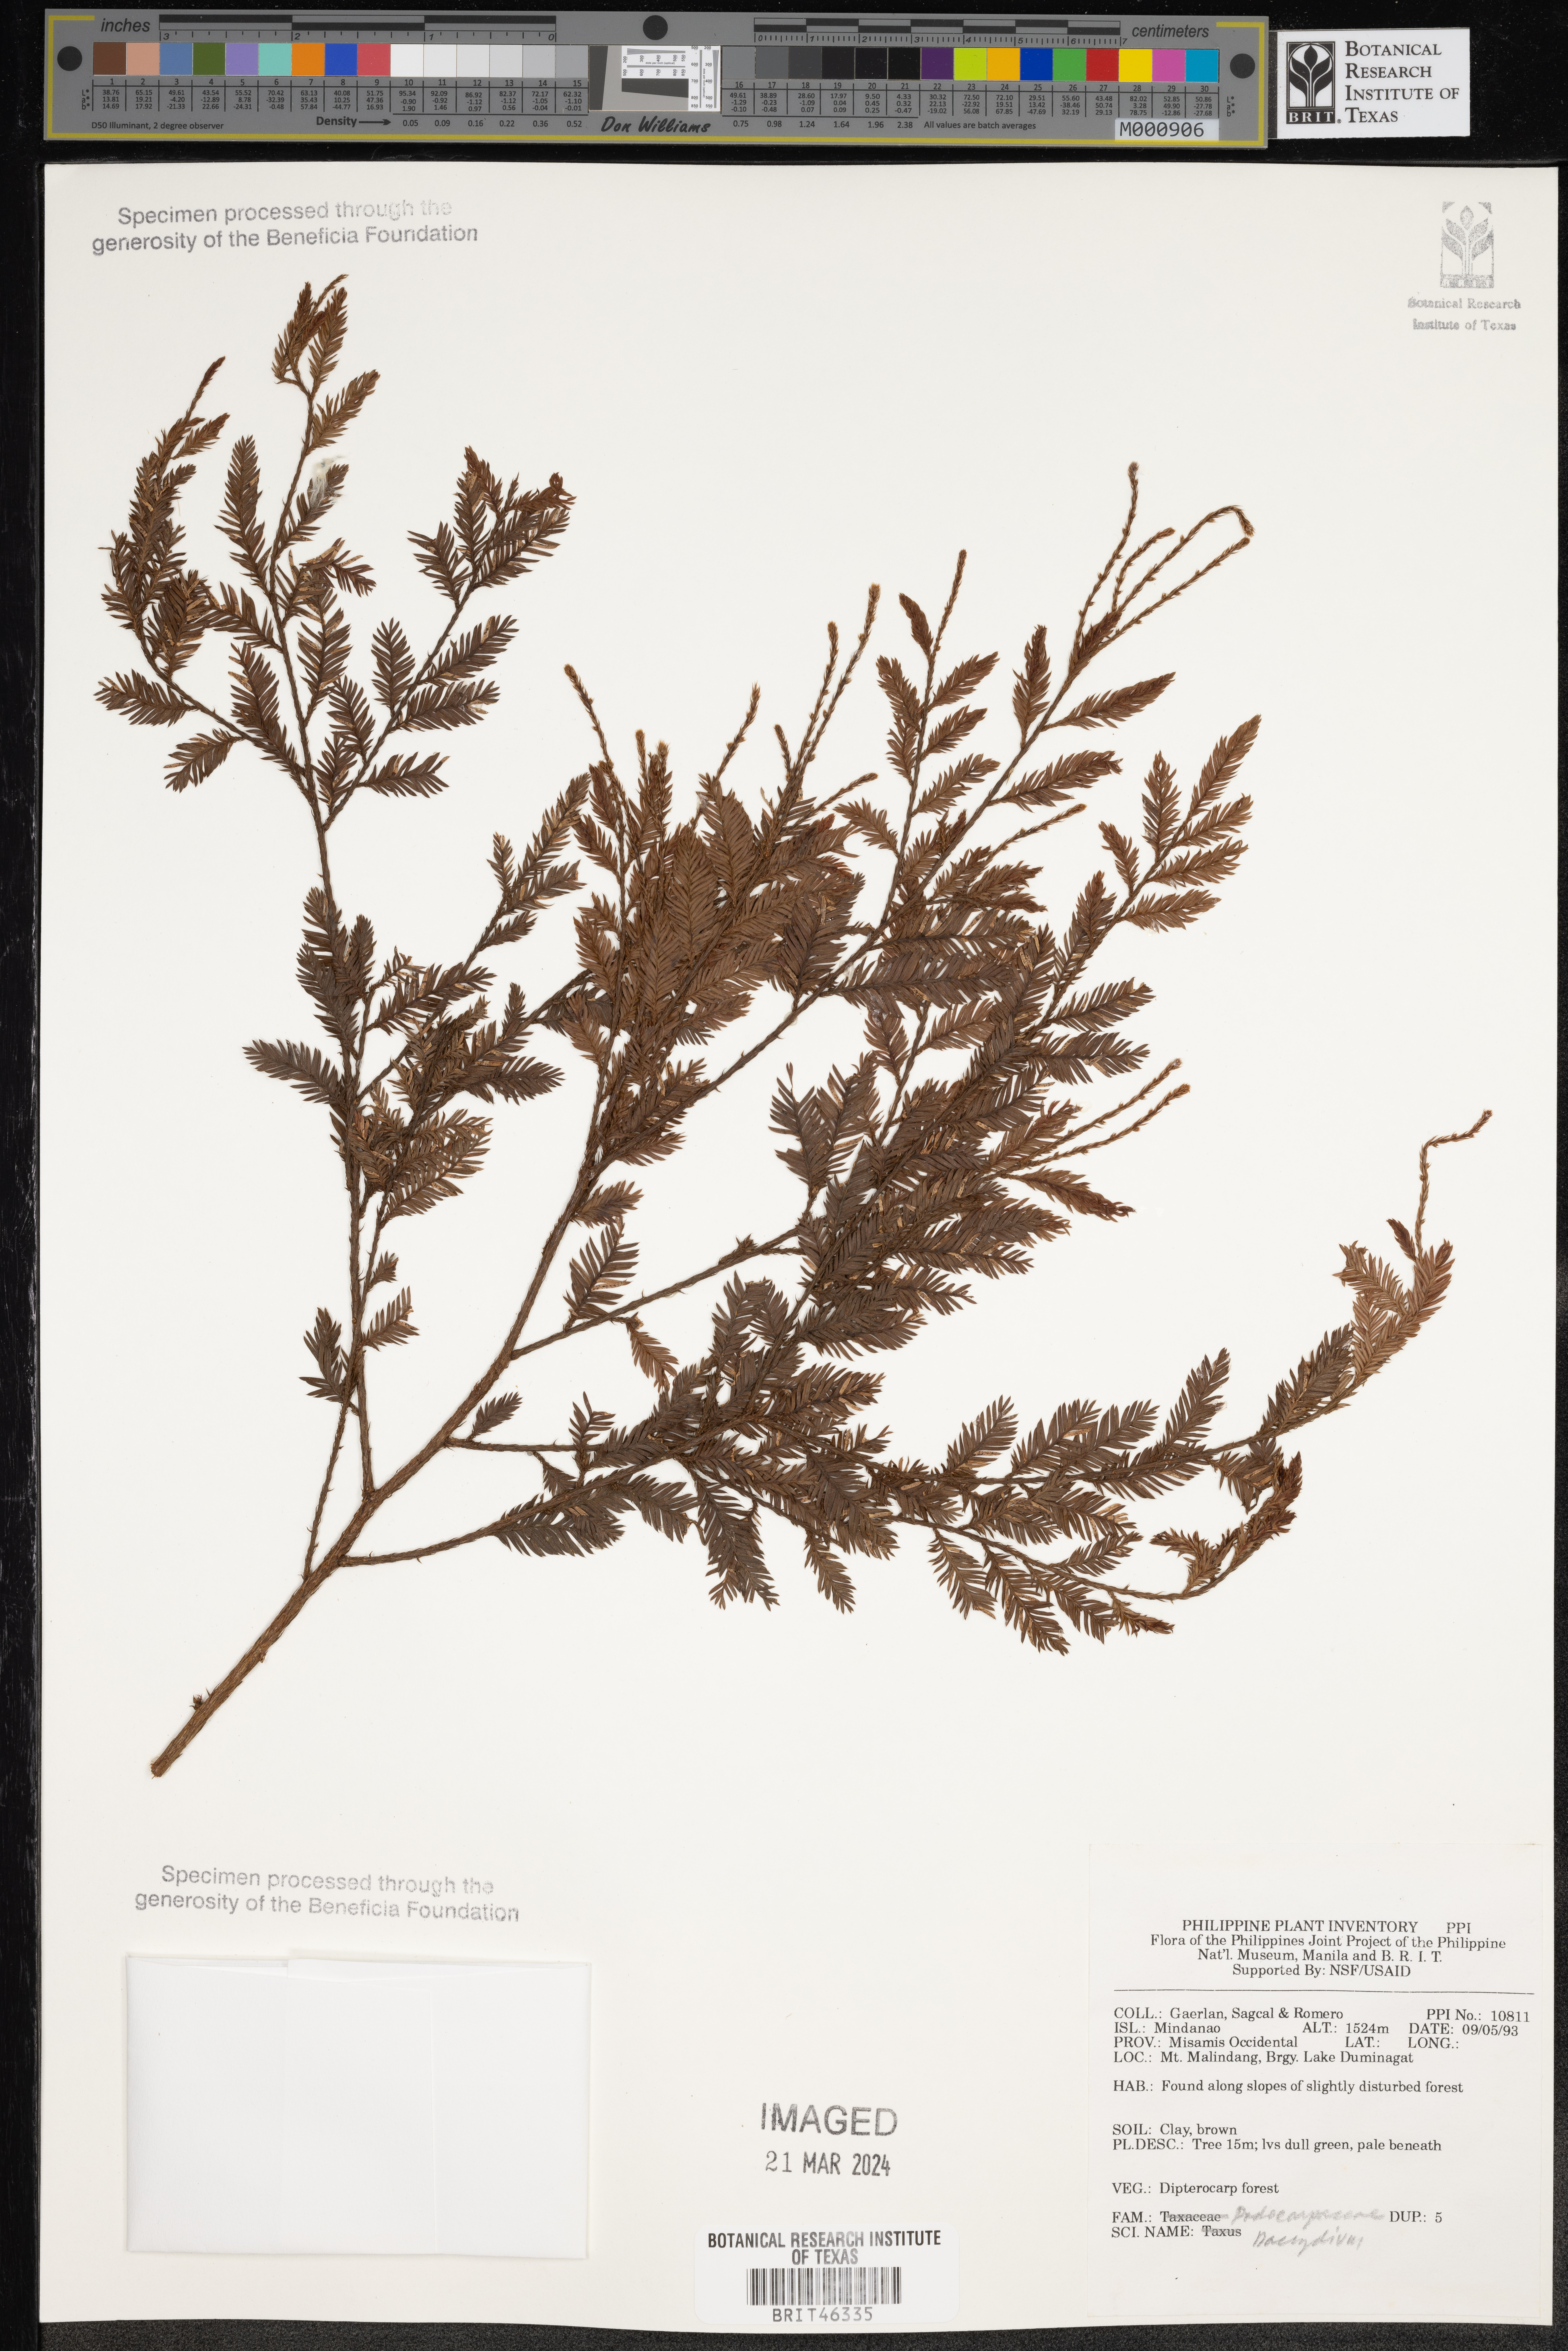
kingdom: Plantae
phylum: Tracheophyta
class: Pinopsida
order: Pinales
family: Podocarpaceae
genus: Dacrydium
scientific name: Dacrydium
